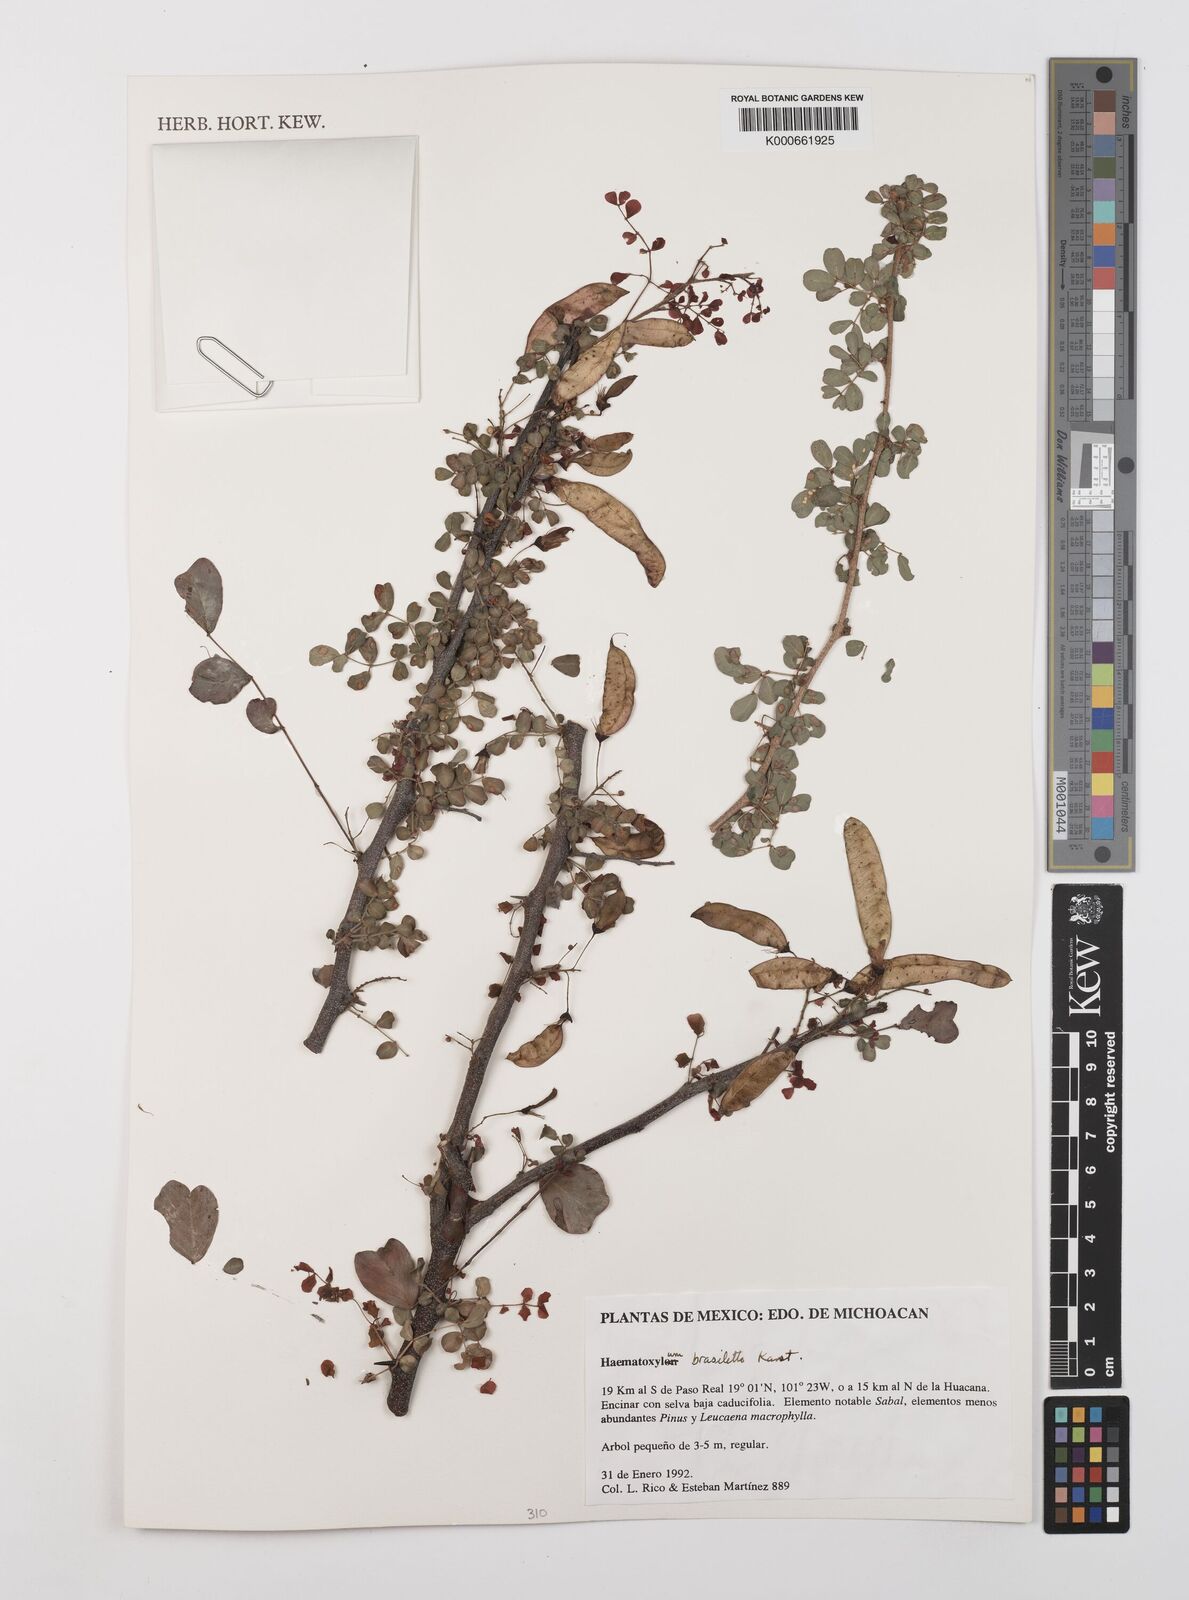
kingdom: Plantae
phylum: Tracheophyta
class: Magnoliopsida
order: Fabales
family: Fabaceae
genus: Haematoxylum
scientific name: Haematoxylum brasiletto
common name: Peachwood
